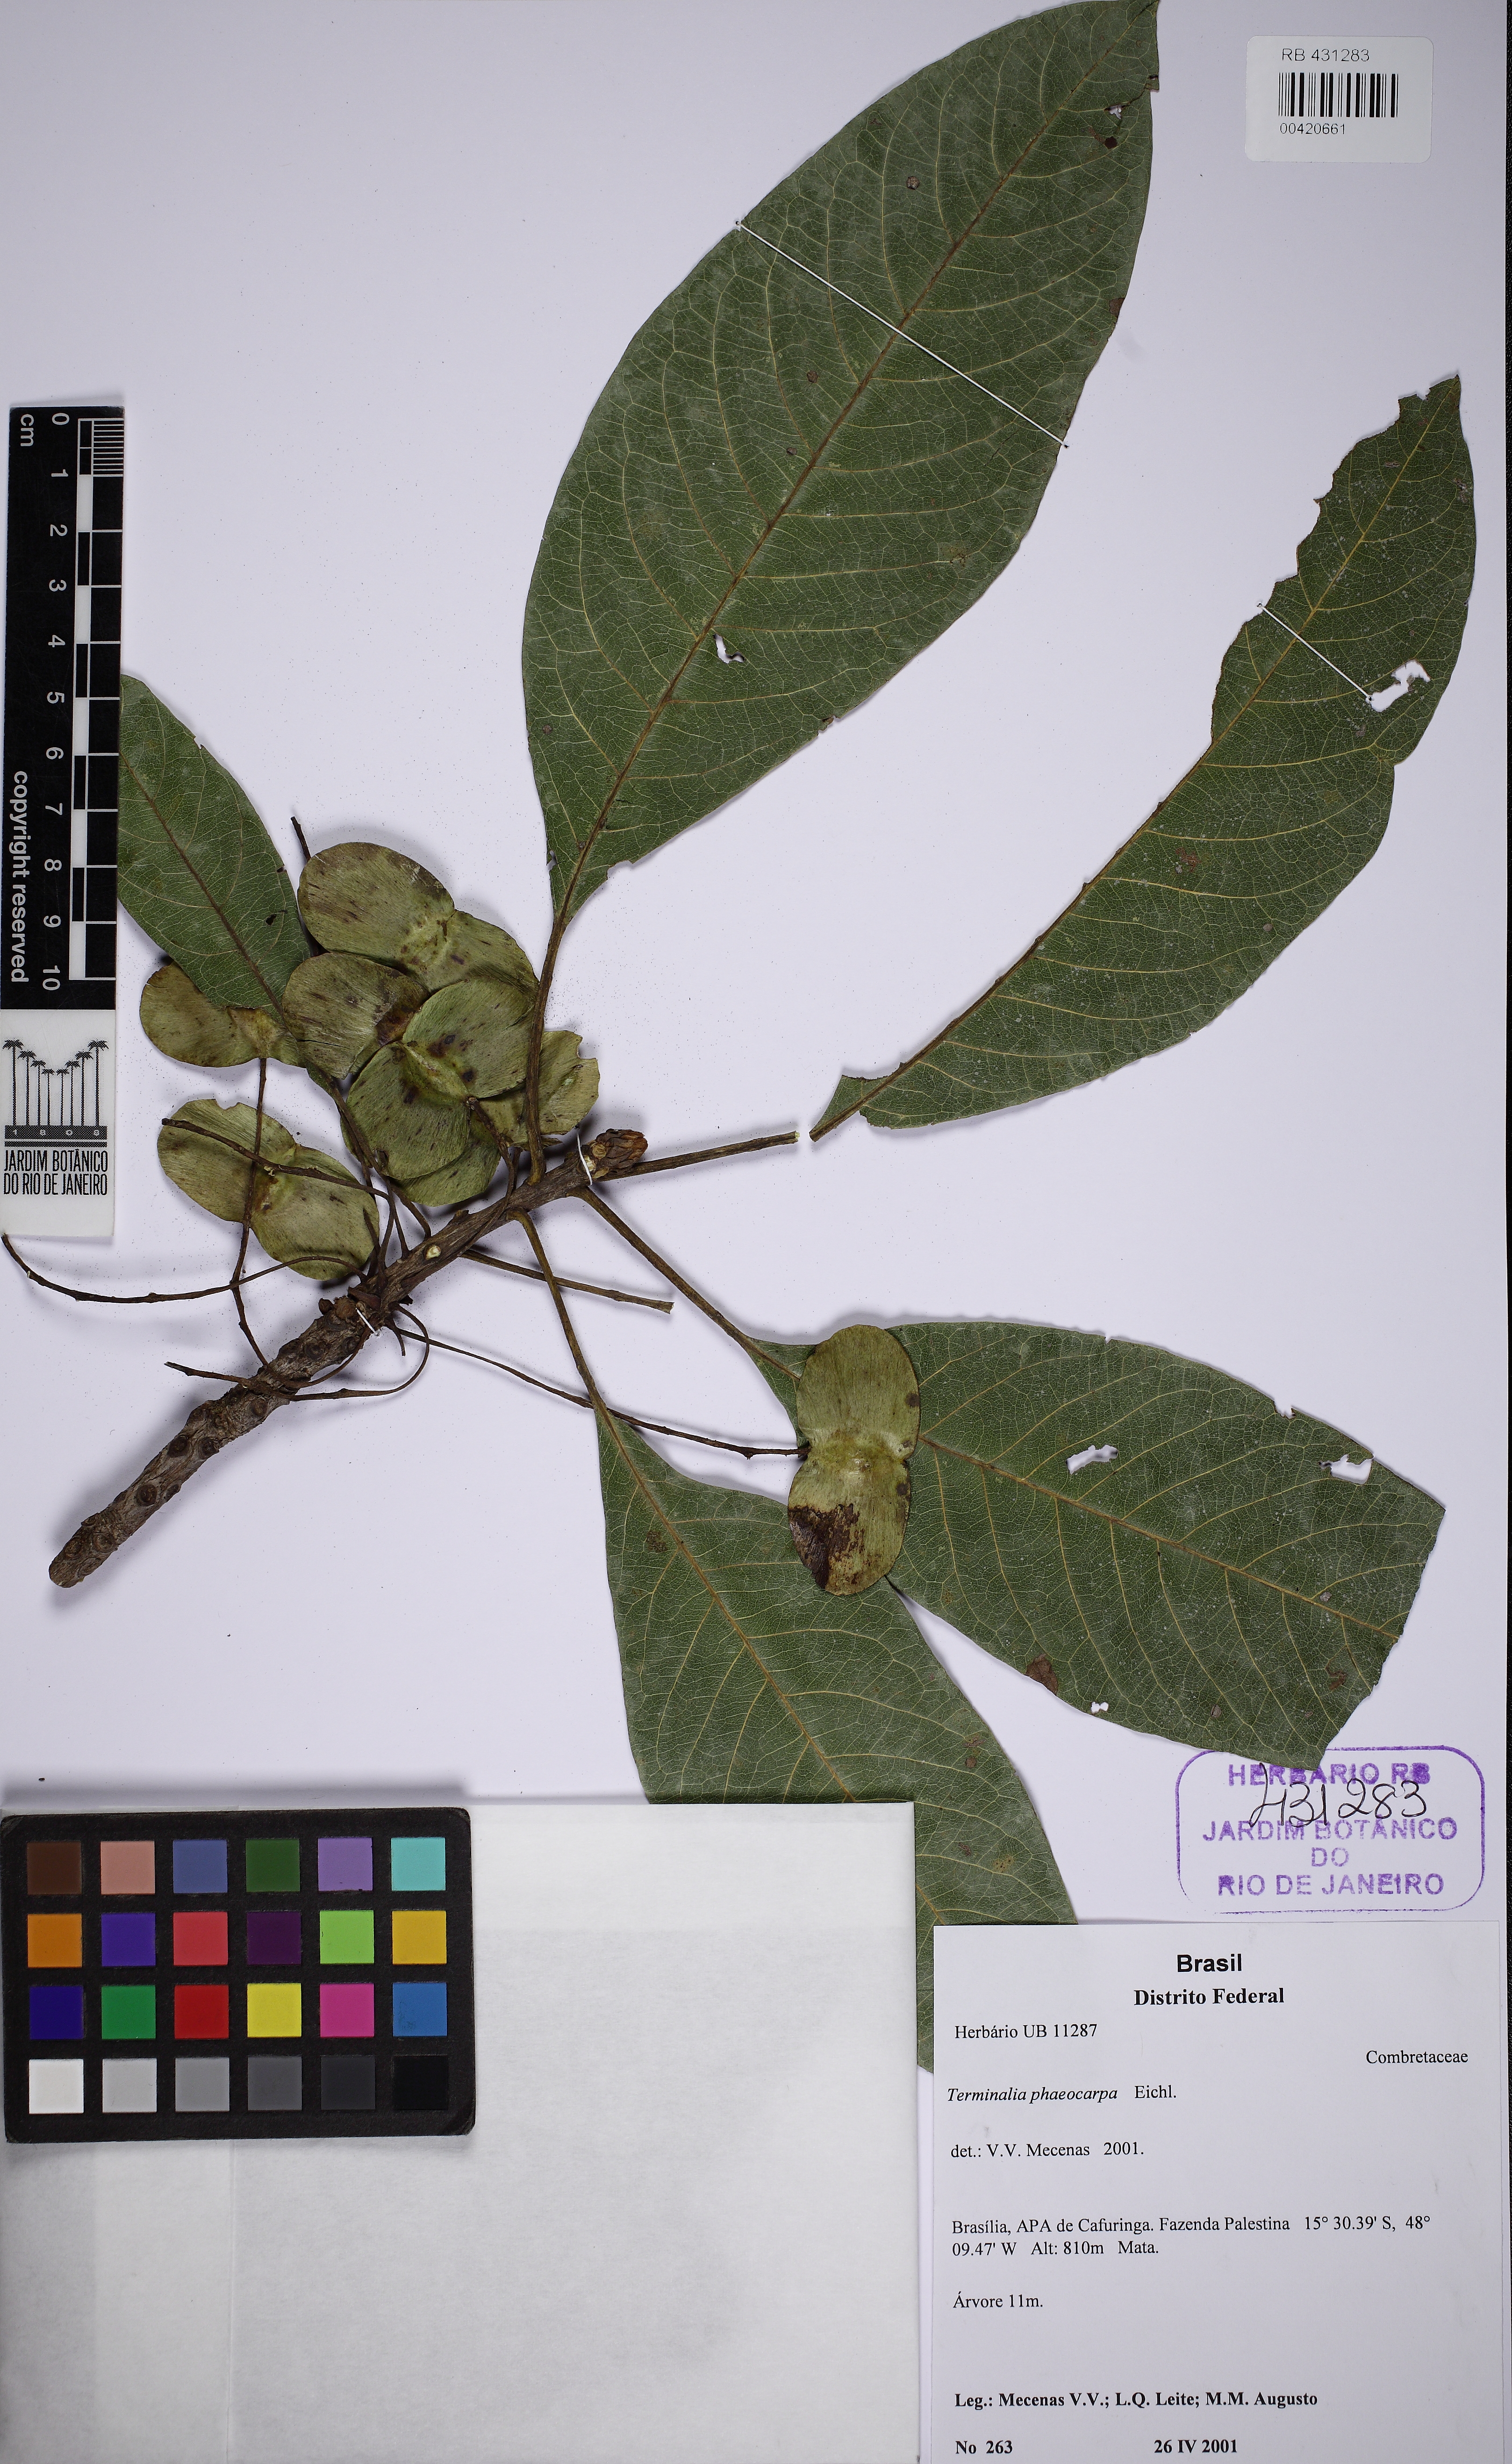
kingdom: Plantae
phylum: Tracheophyta
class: Magnoliopsida
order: Myrtales
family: Combretaceae
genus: Terminalia
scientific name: Terminalia phaeocarpa
